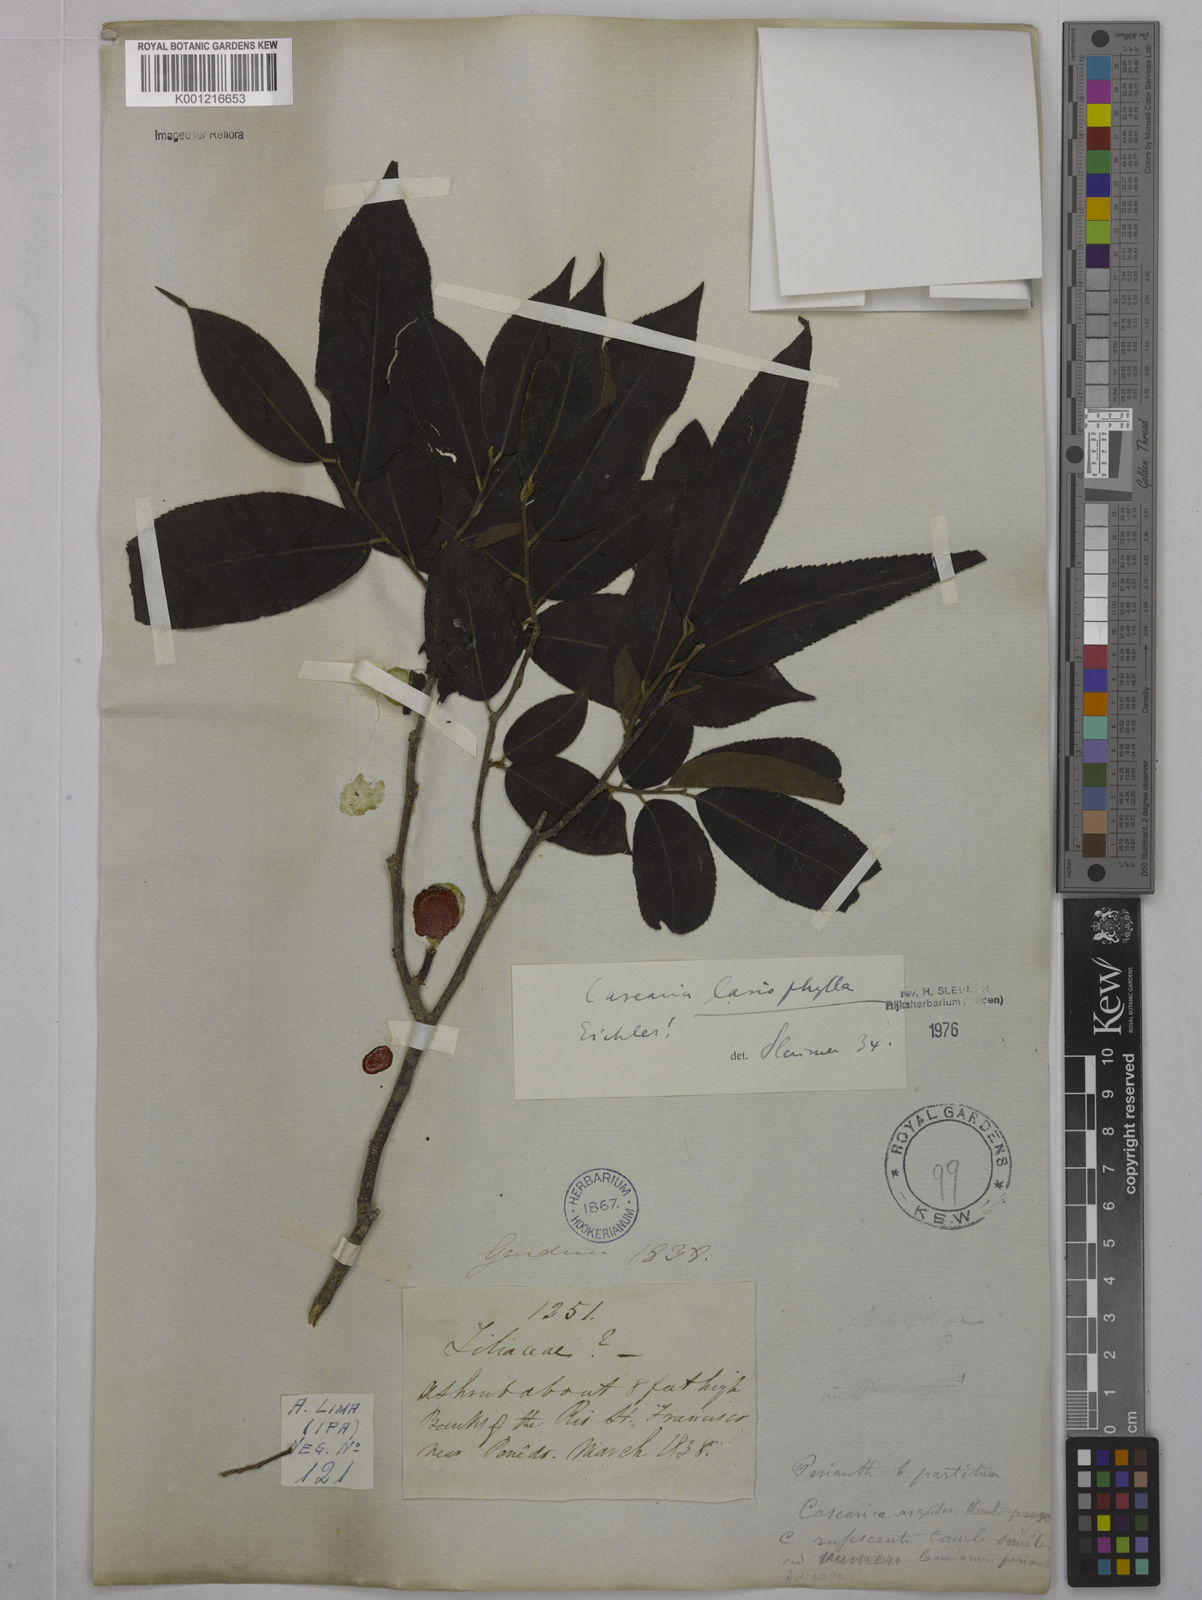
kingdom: Plantae
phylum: Tracheophyta
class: Magnoliopsida
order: Malpighiales
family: Salicaceae
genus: Casearia
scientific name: Casearia lasiophylla
